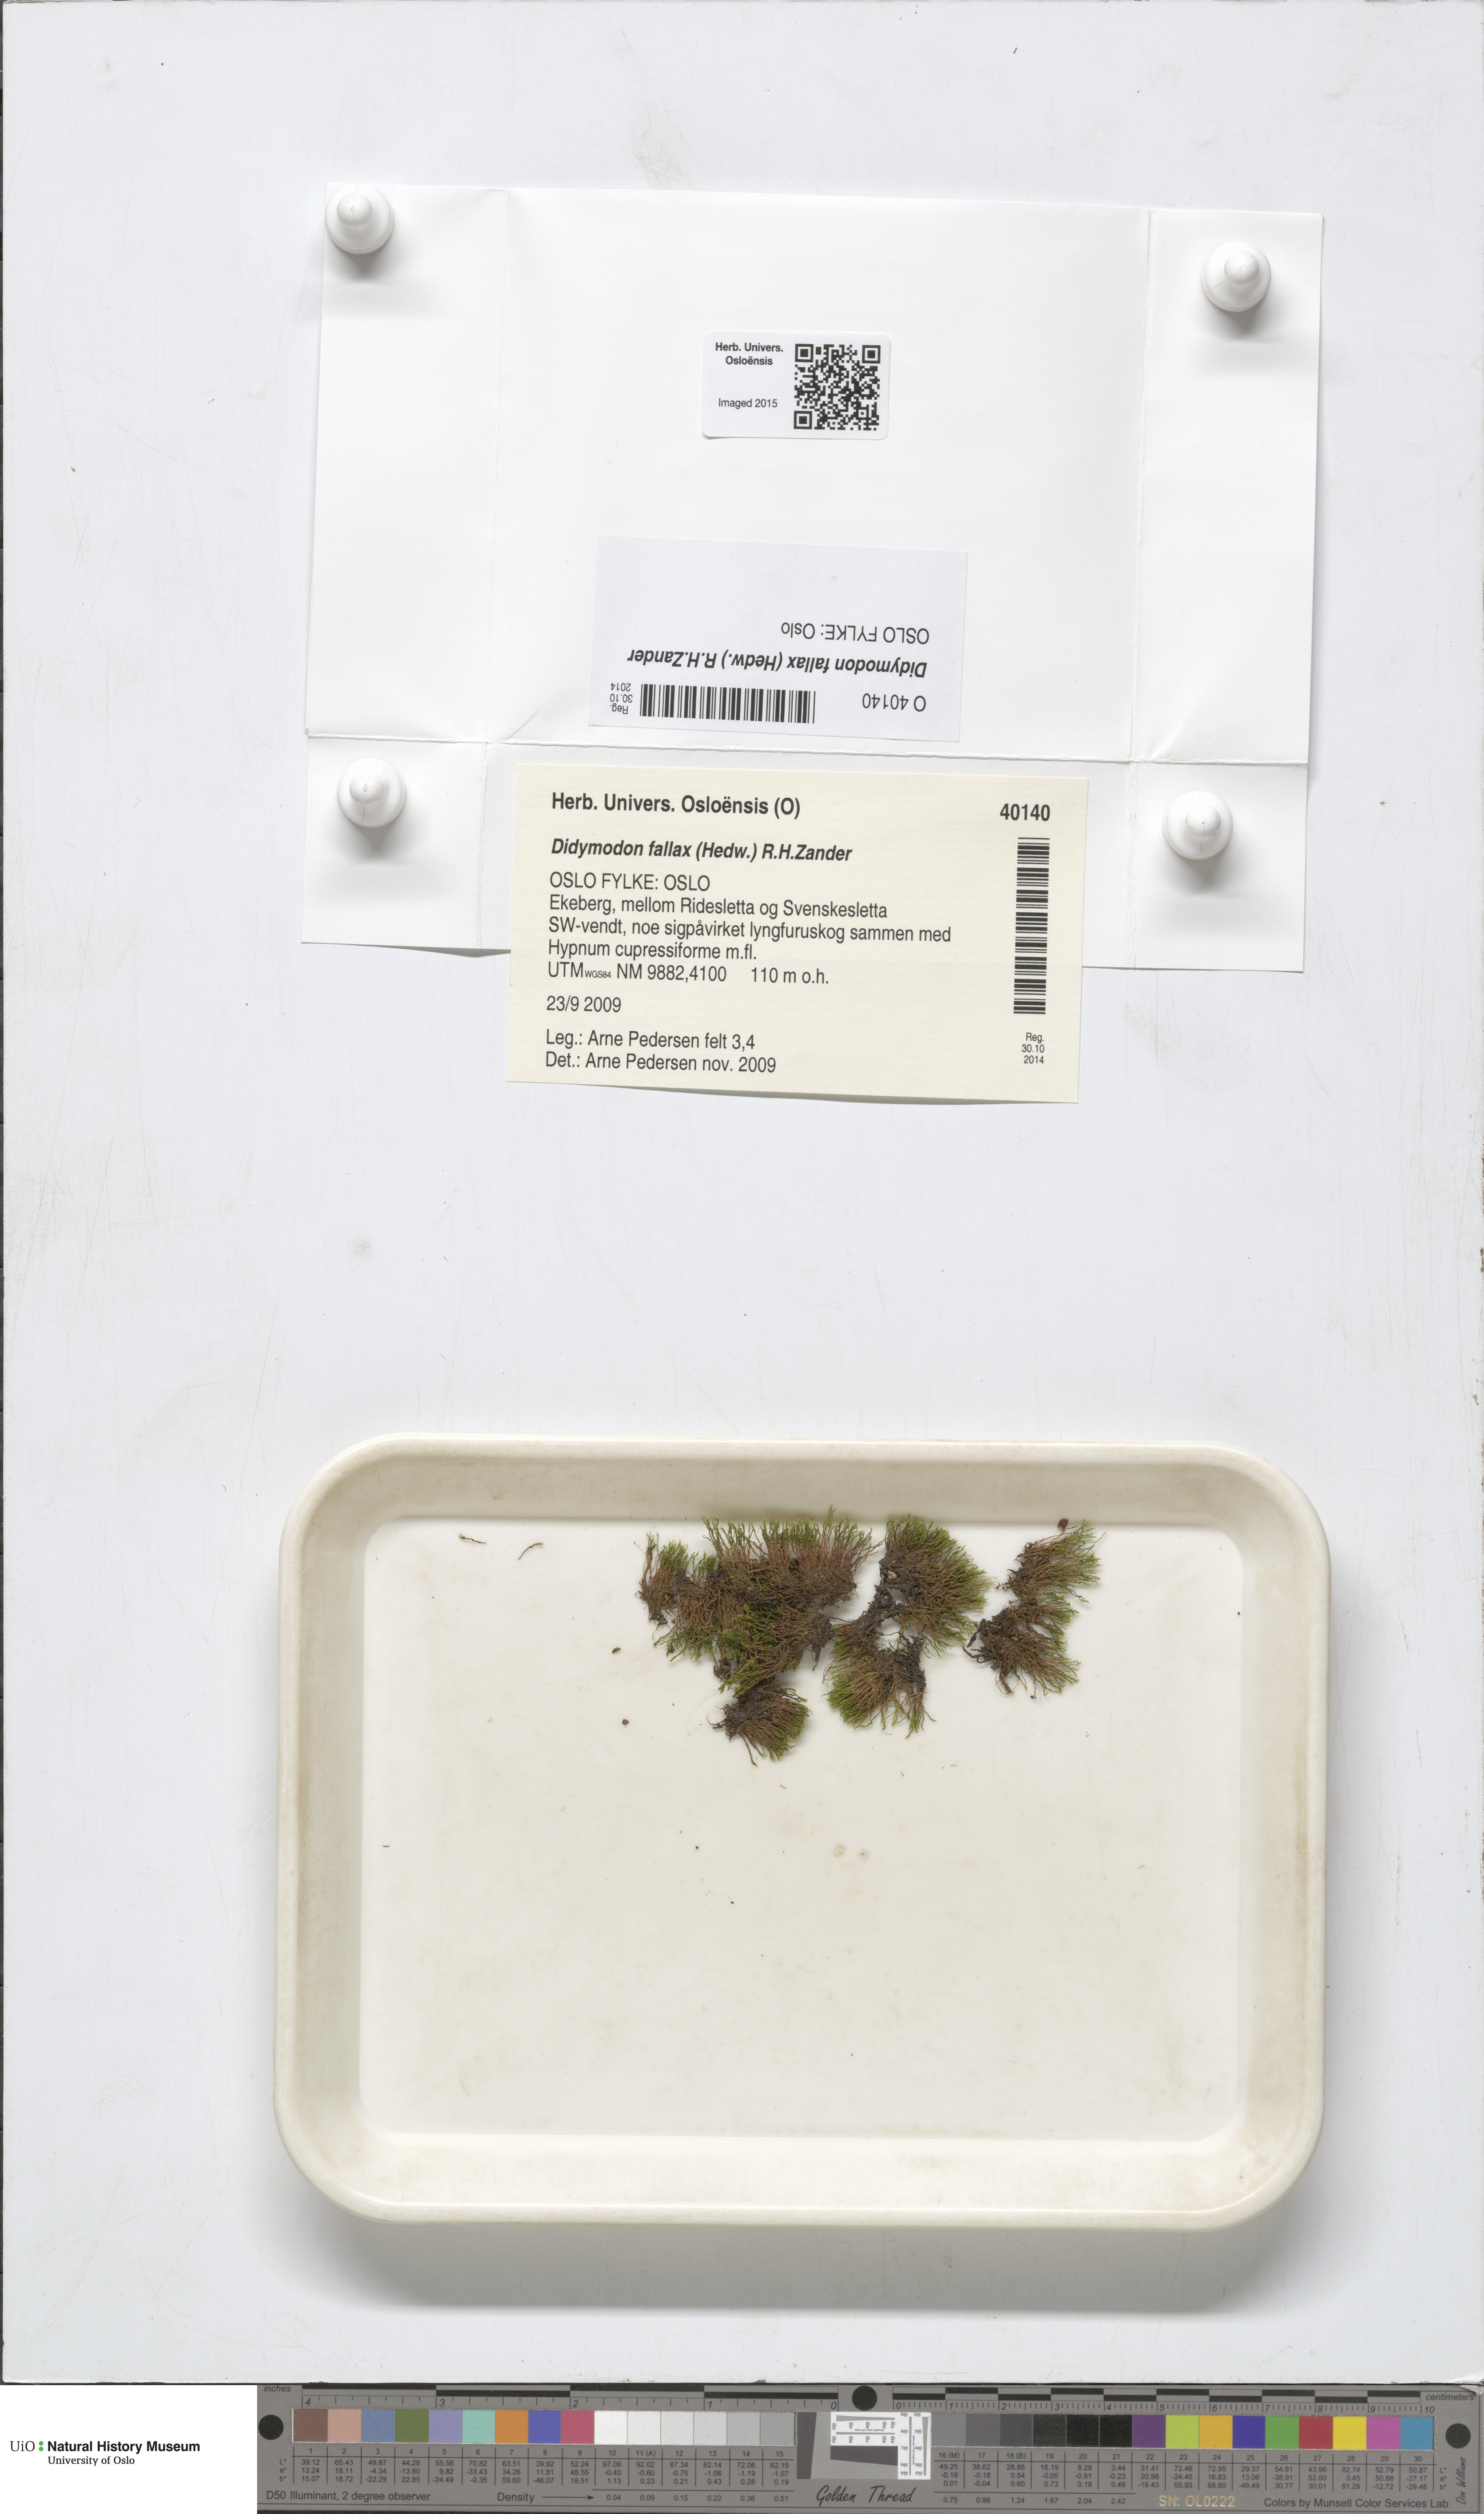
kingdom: Plantae
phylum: Bryophyta
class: Bryopsida
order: Pottiales
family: Pottiaceae
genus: Geheebia
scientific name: Geheebia fallax
